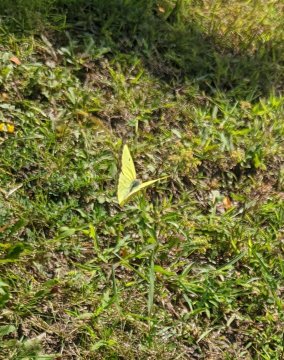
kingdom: Animalia
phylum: Arthropoda
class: Insecta
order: Lepidoptera
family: Pieridae
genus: Colias
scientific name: Colias philodice
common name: Clouded Sulphur
